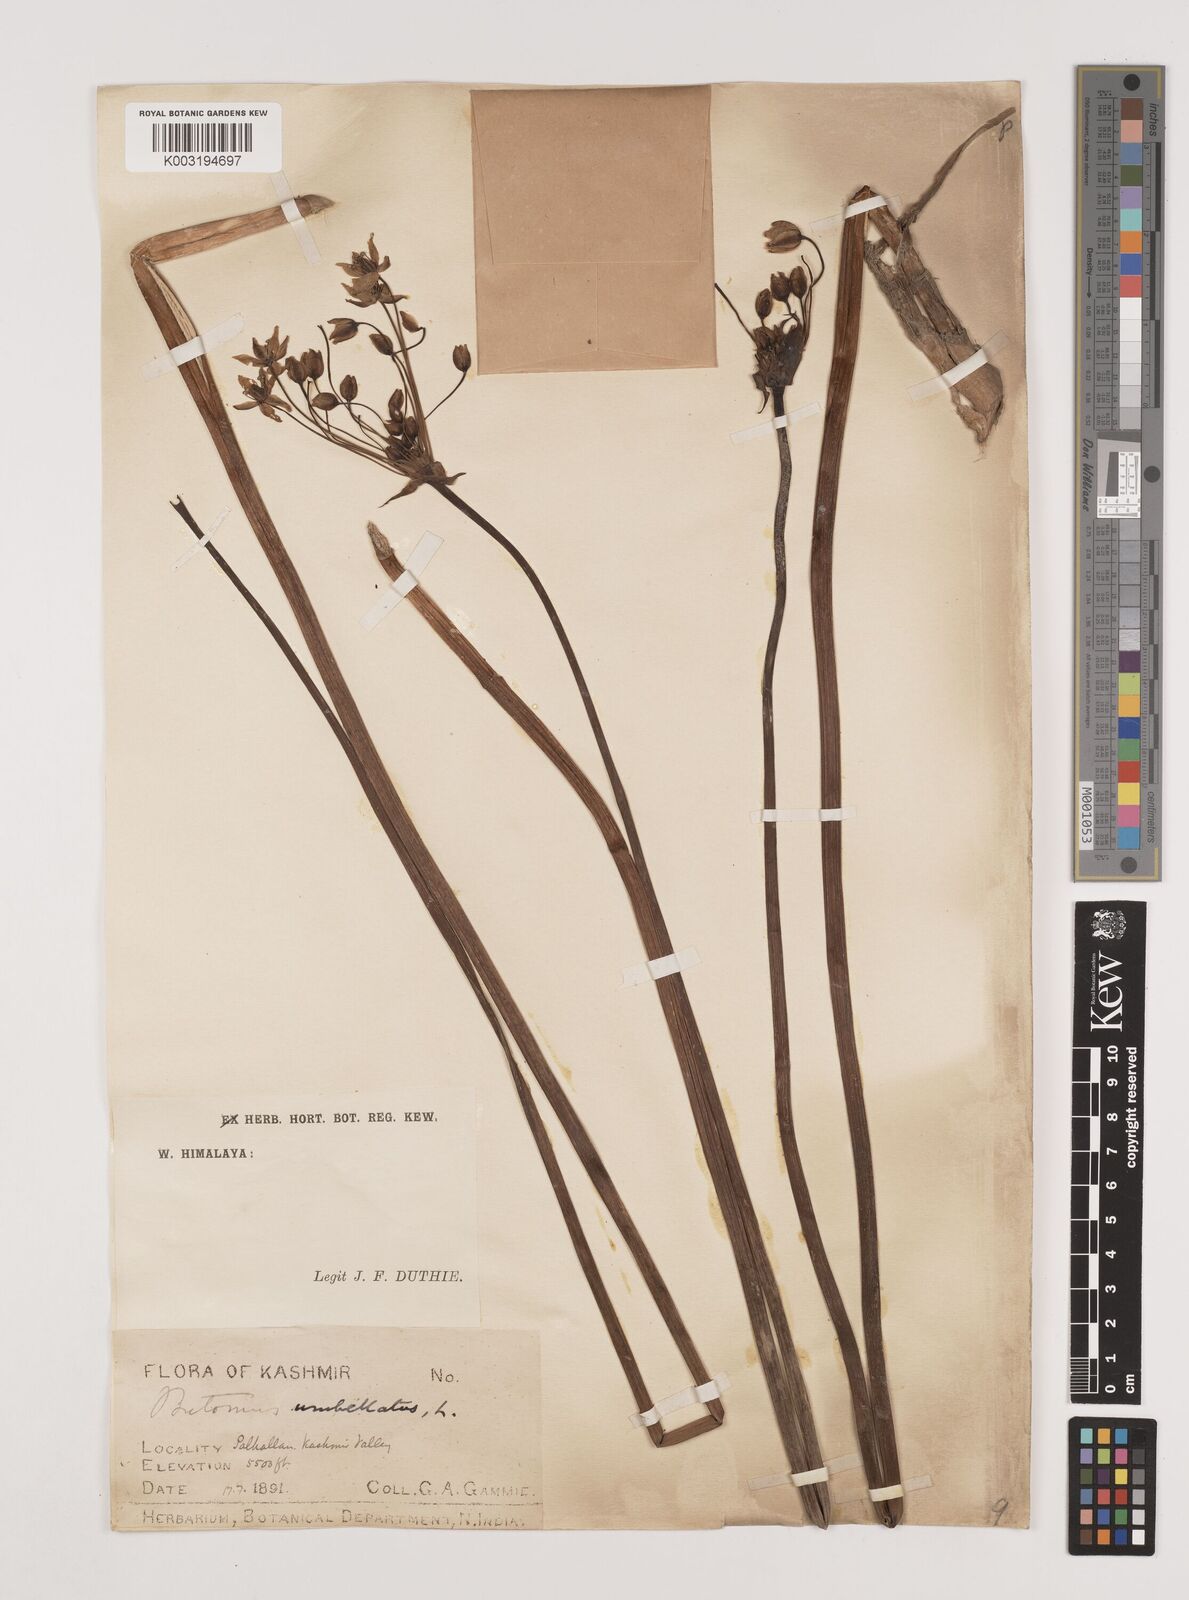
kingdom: Plantae
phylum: Tracheophyta
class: Liliopsida
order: Alismatales
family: Butomaceae
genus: Butomus
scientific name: Butomus umbellatus
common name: Flowering-rush
